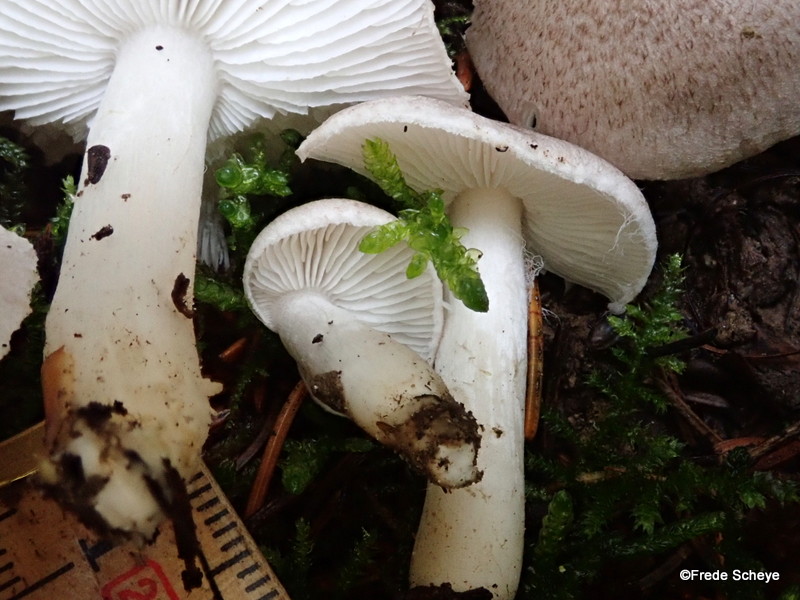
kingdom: Fungi
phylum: Basidiomycota
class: Agaricomycetes
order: Agaricales
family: Tricholomataceae
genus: Tricholoma
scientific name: Tricholoma argyraceum
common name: slør-ridderhat
